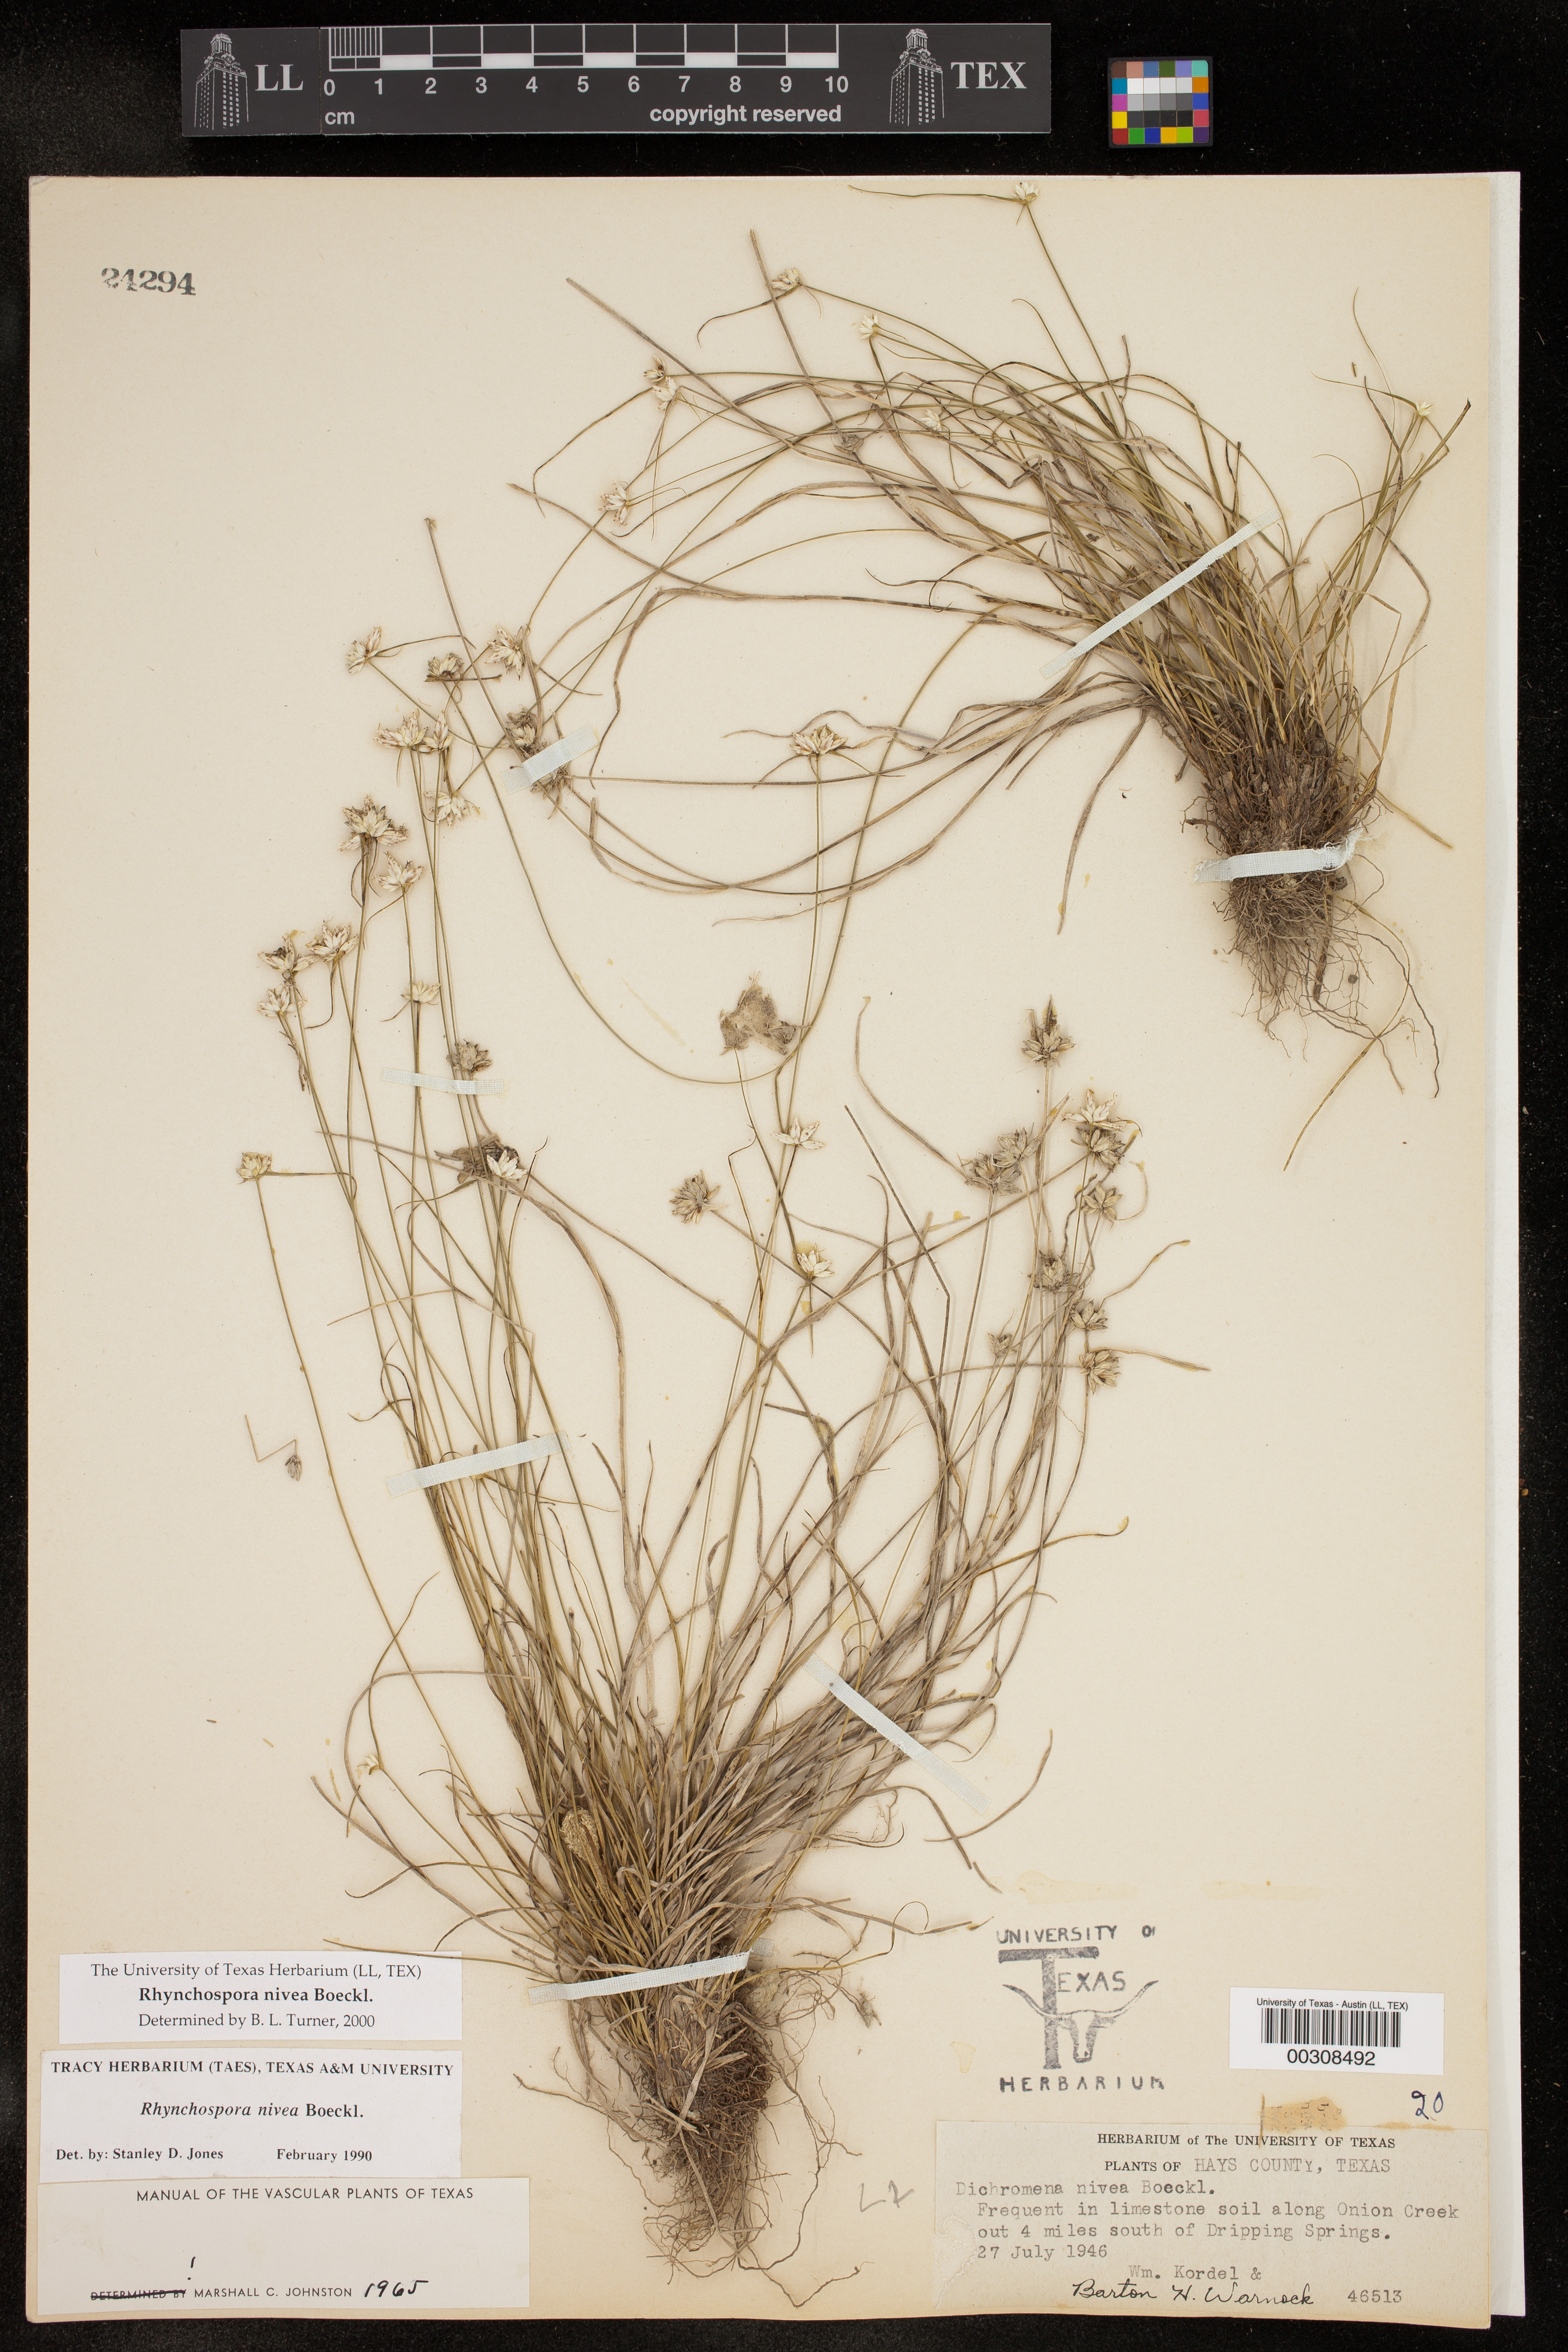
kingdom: Plantae
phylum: Tracheophyta
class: Liliopsida
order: Poales
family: Cyperaceae
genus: Rhynchospora
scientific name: Rhynchospora nivea
